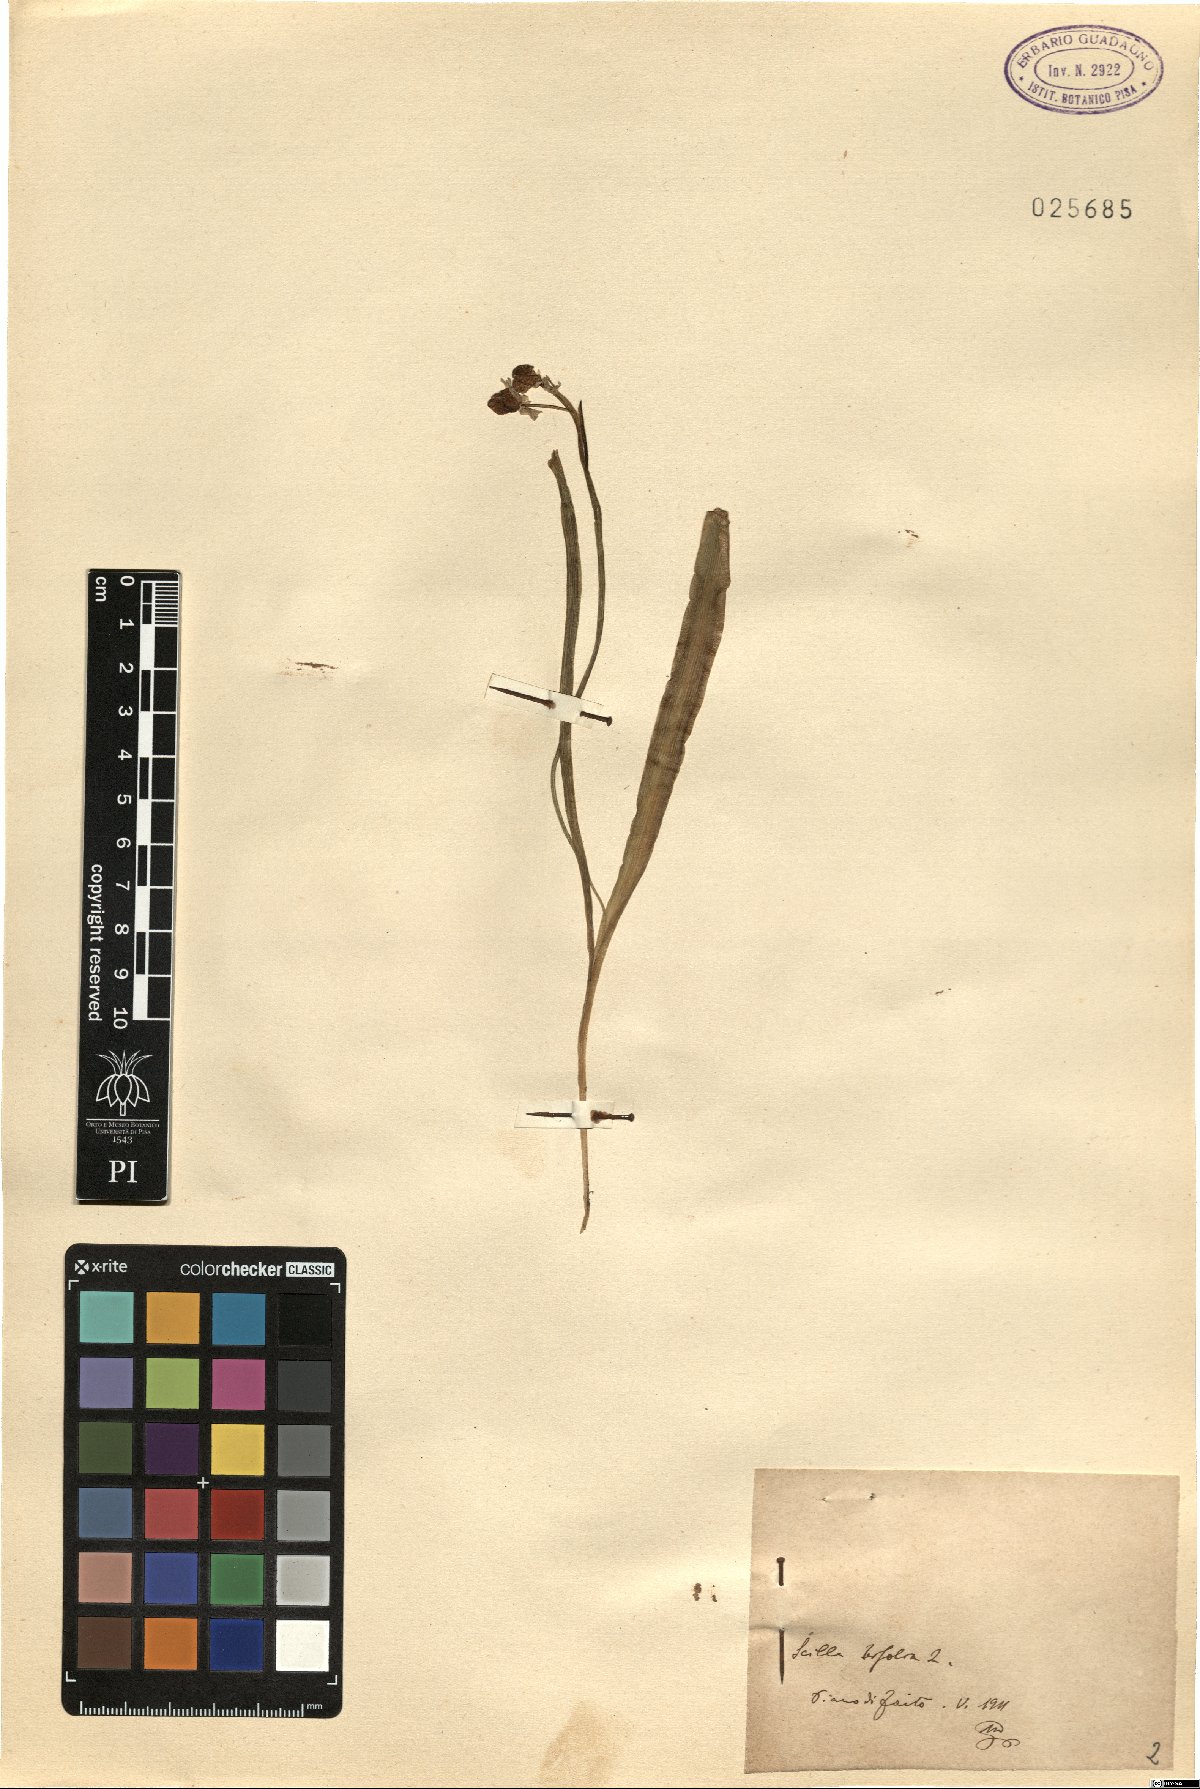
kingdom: Plantae
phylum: Tracheophyta
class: Liliopsida
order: Asparagales
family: Asparagaceae
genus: Scilla
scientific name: Scilla bifolia
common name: Alpine squill
